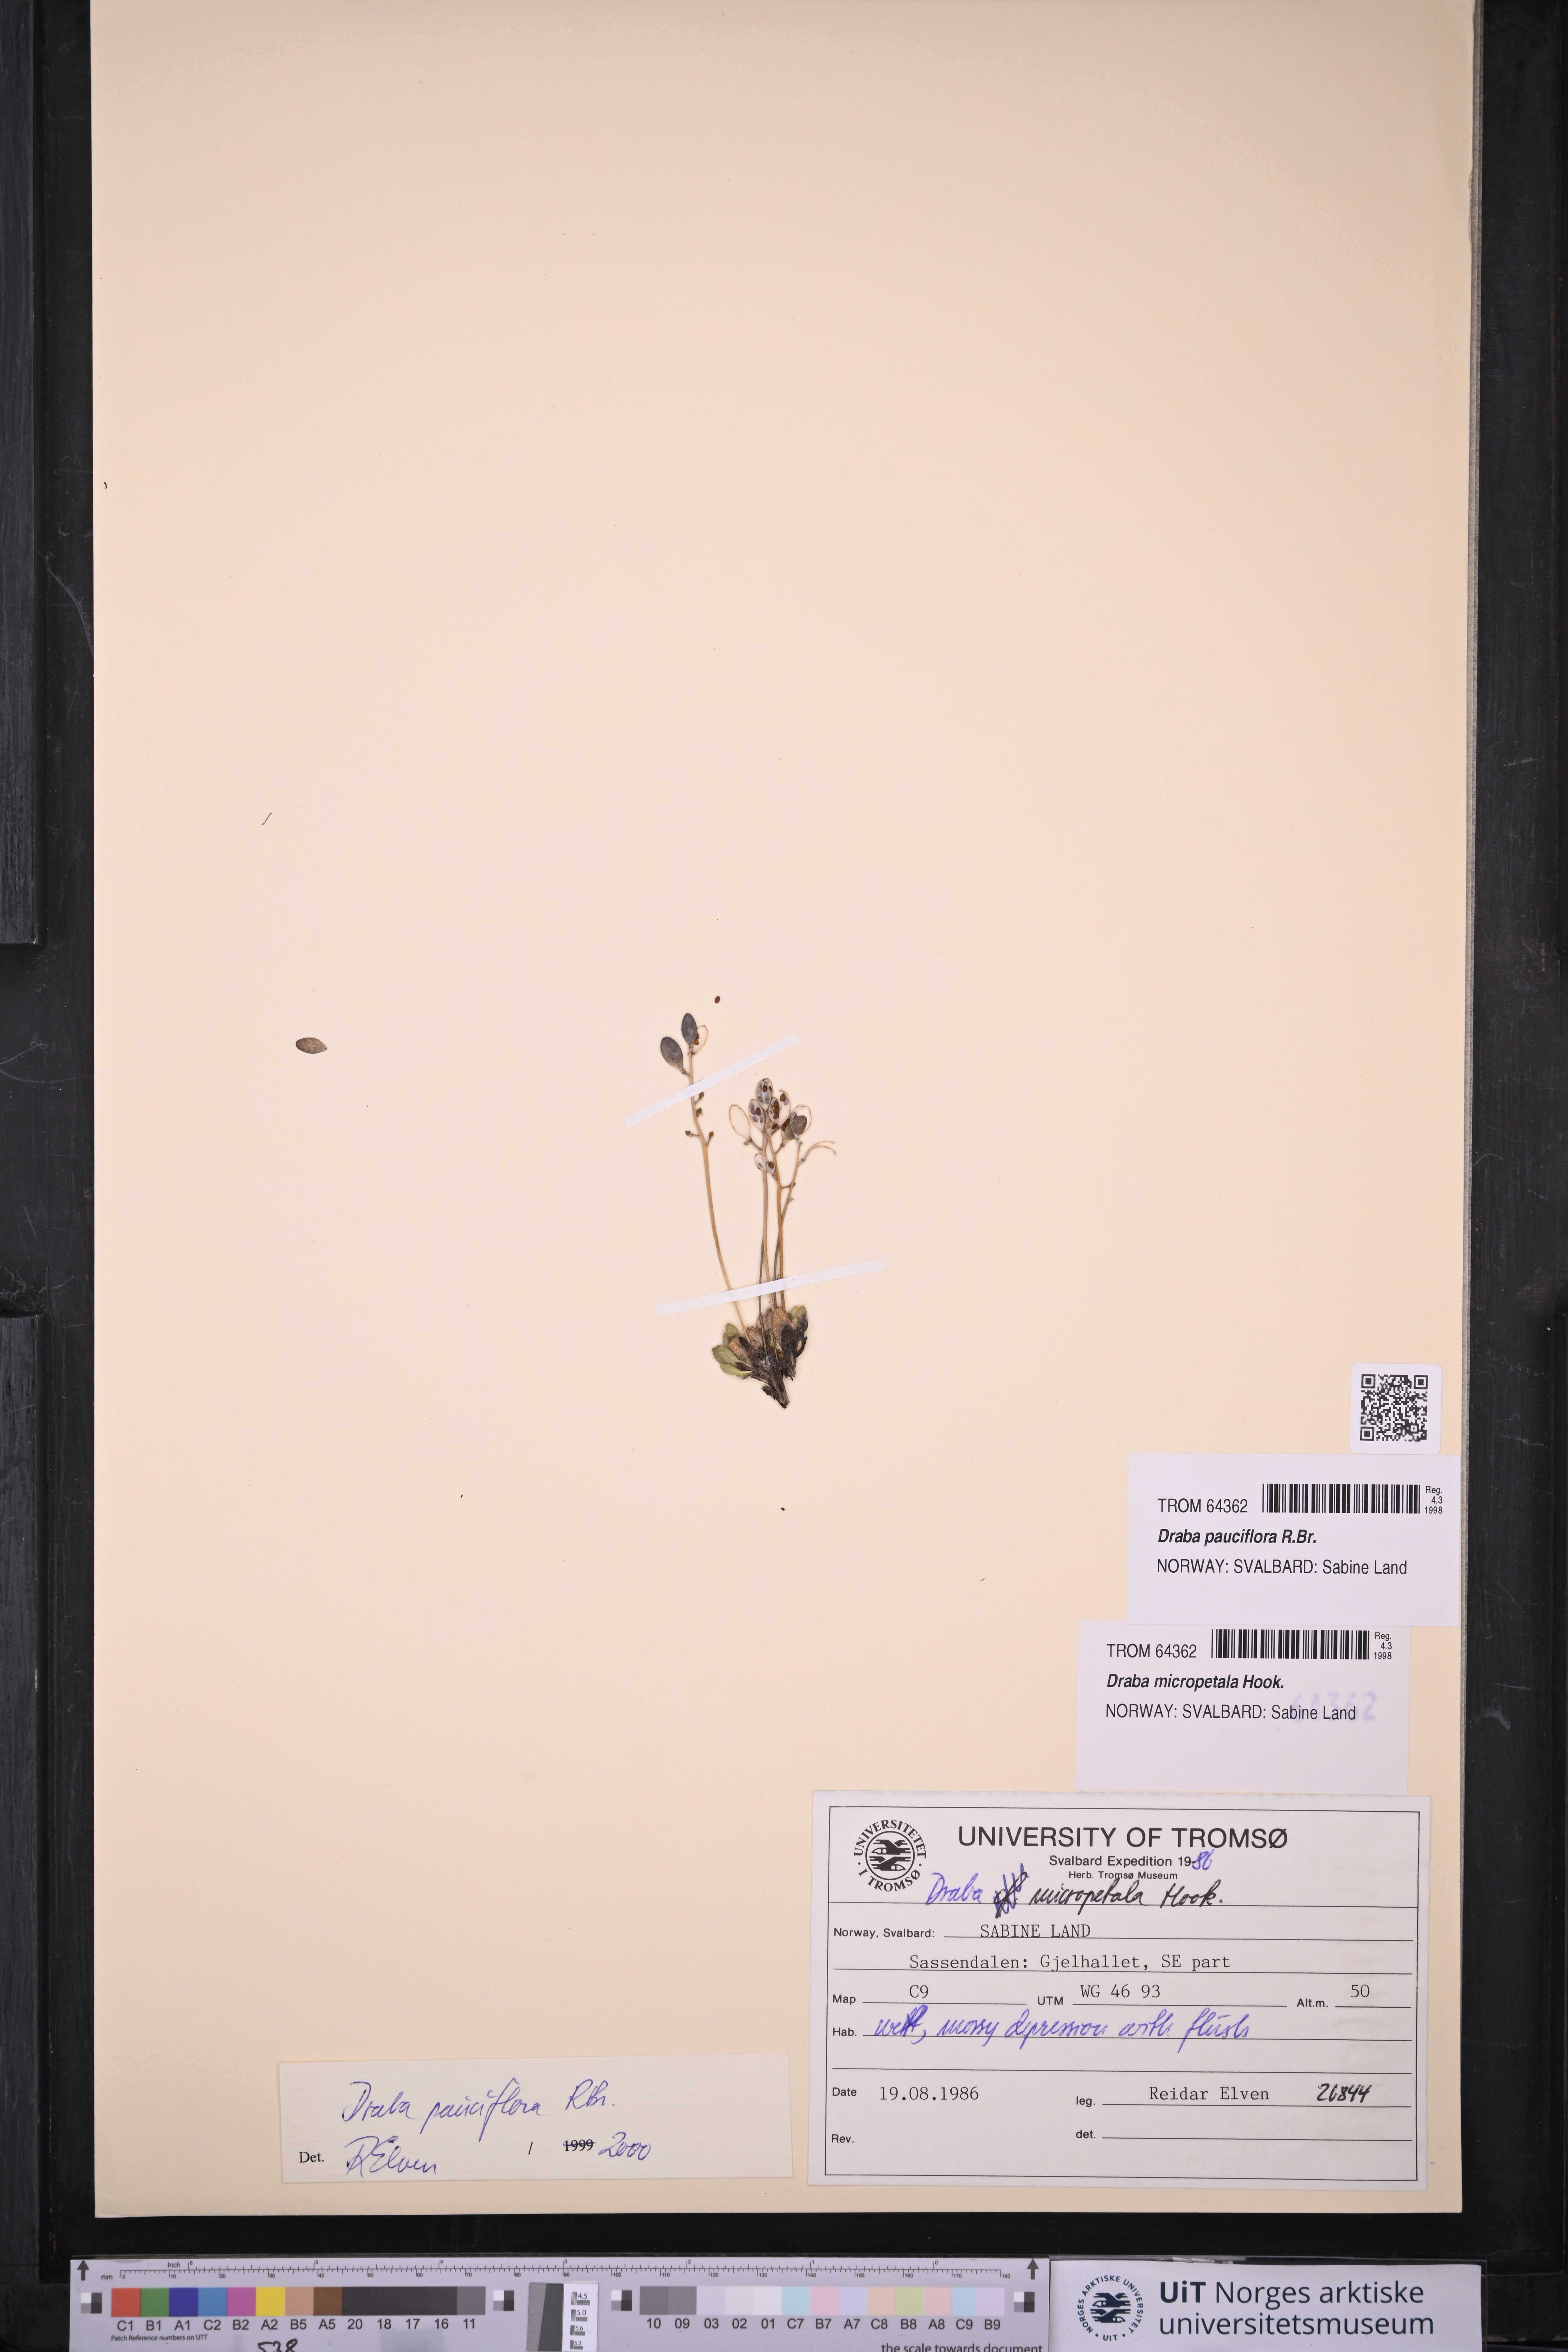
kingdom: Plantae
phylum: Tracheophyta
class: Magnoliopsida
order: Brassicales
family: Brassicaceae
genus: Draba
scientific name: Draba pauciflora
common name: Few-flowered draba
